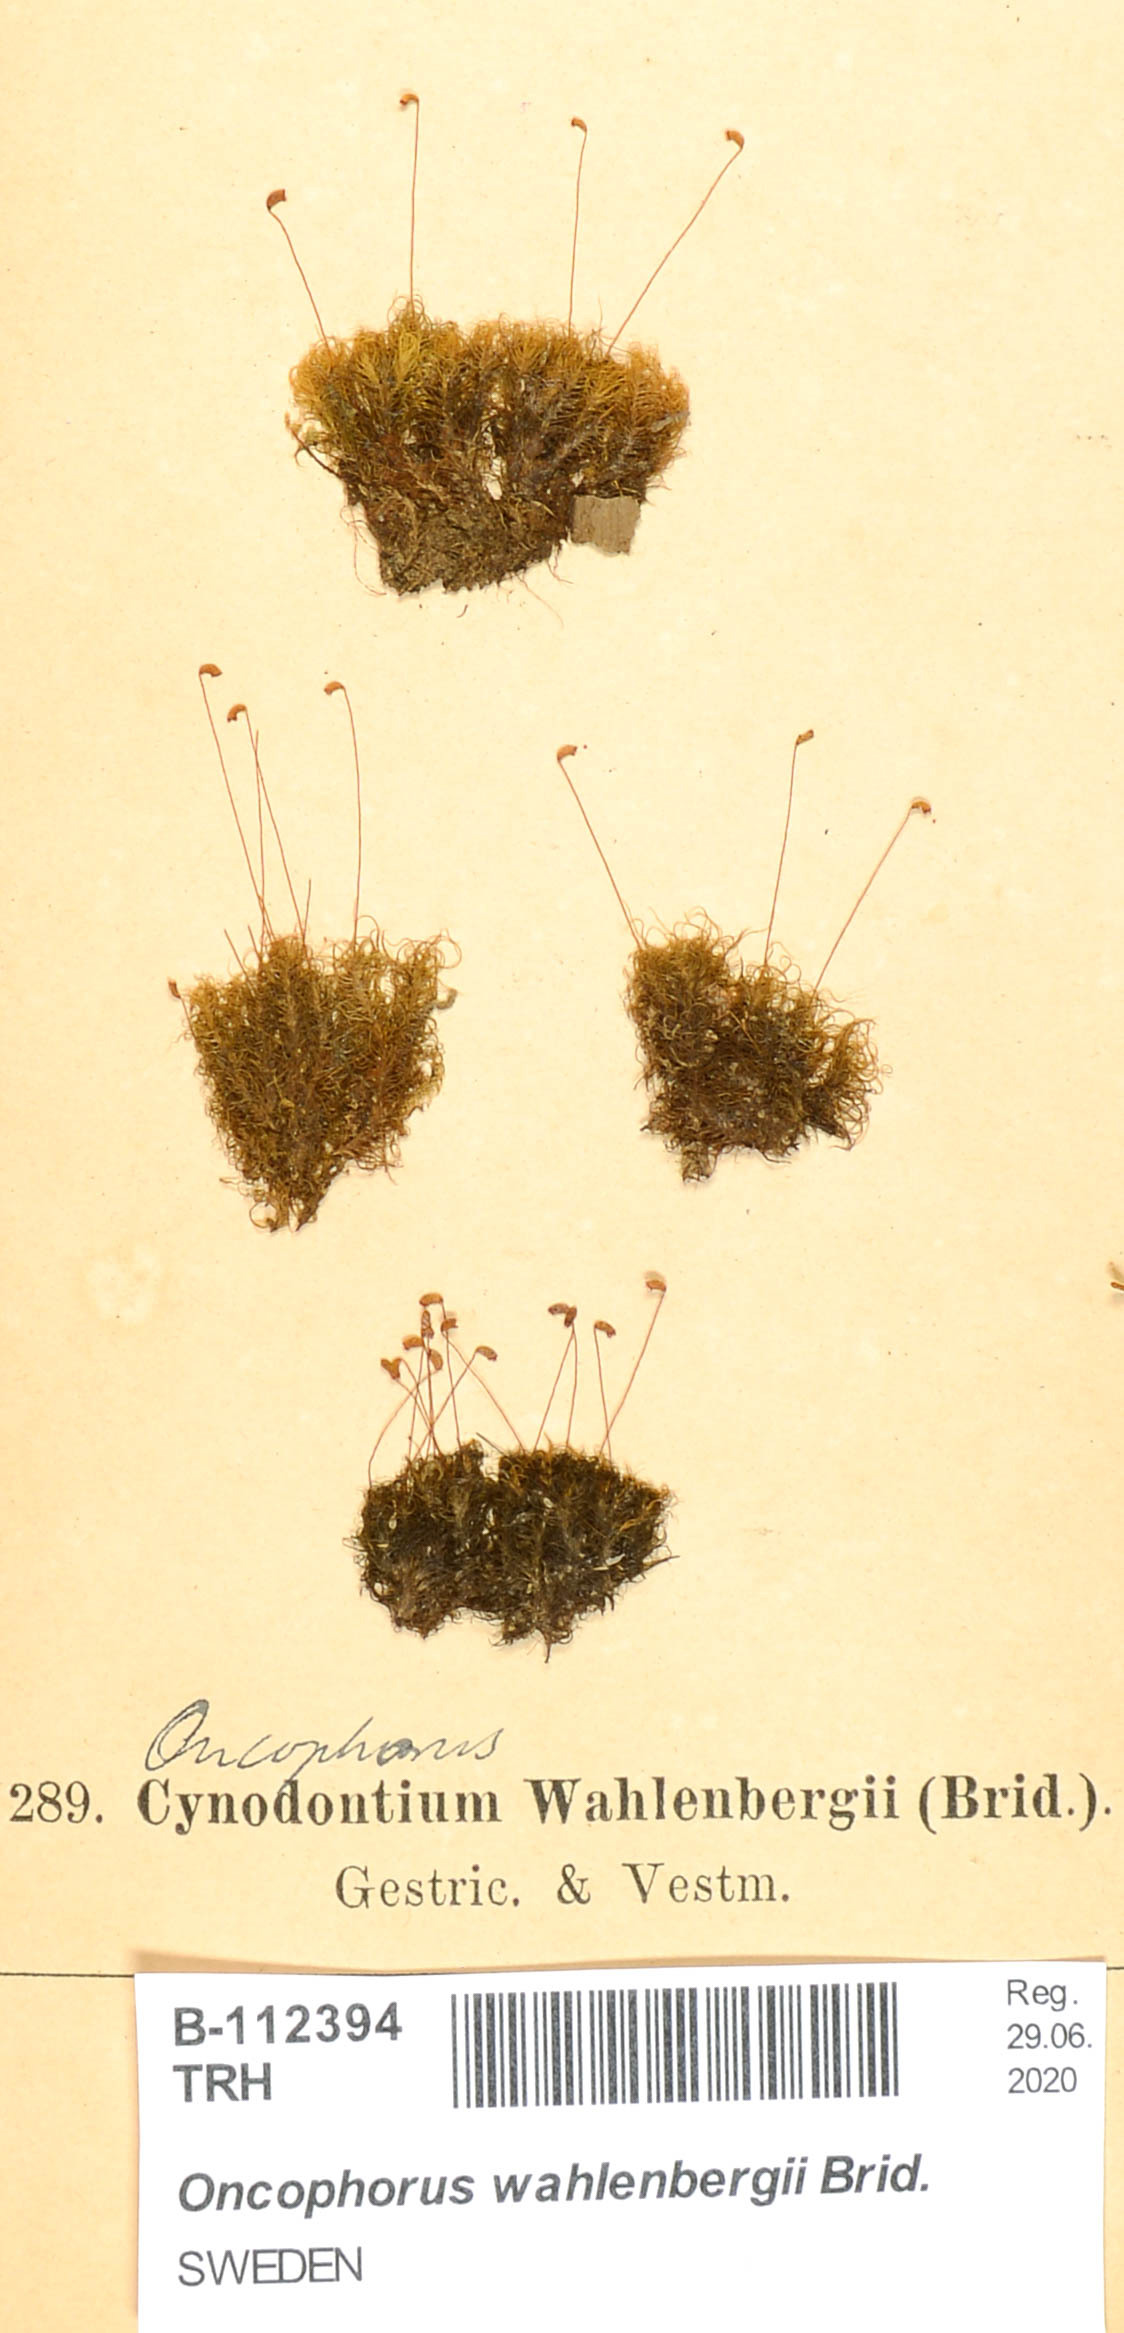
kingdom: Plantae
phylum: Bryophyta
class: Bryopsida
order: Dicranales
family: Rhabdoweisiaceae
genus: Brideliella
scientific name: Brideliella wahlenbergii
